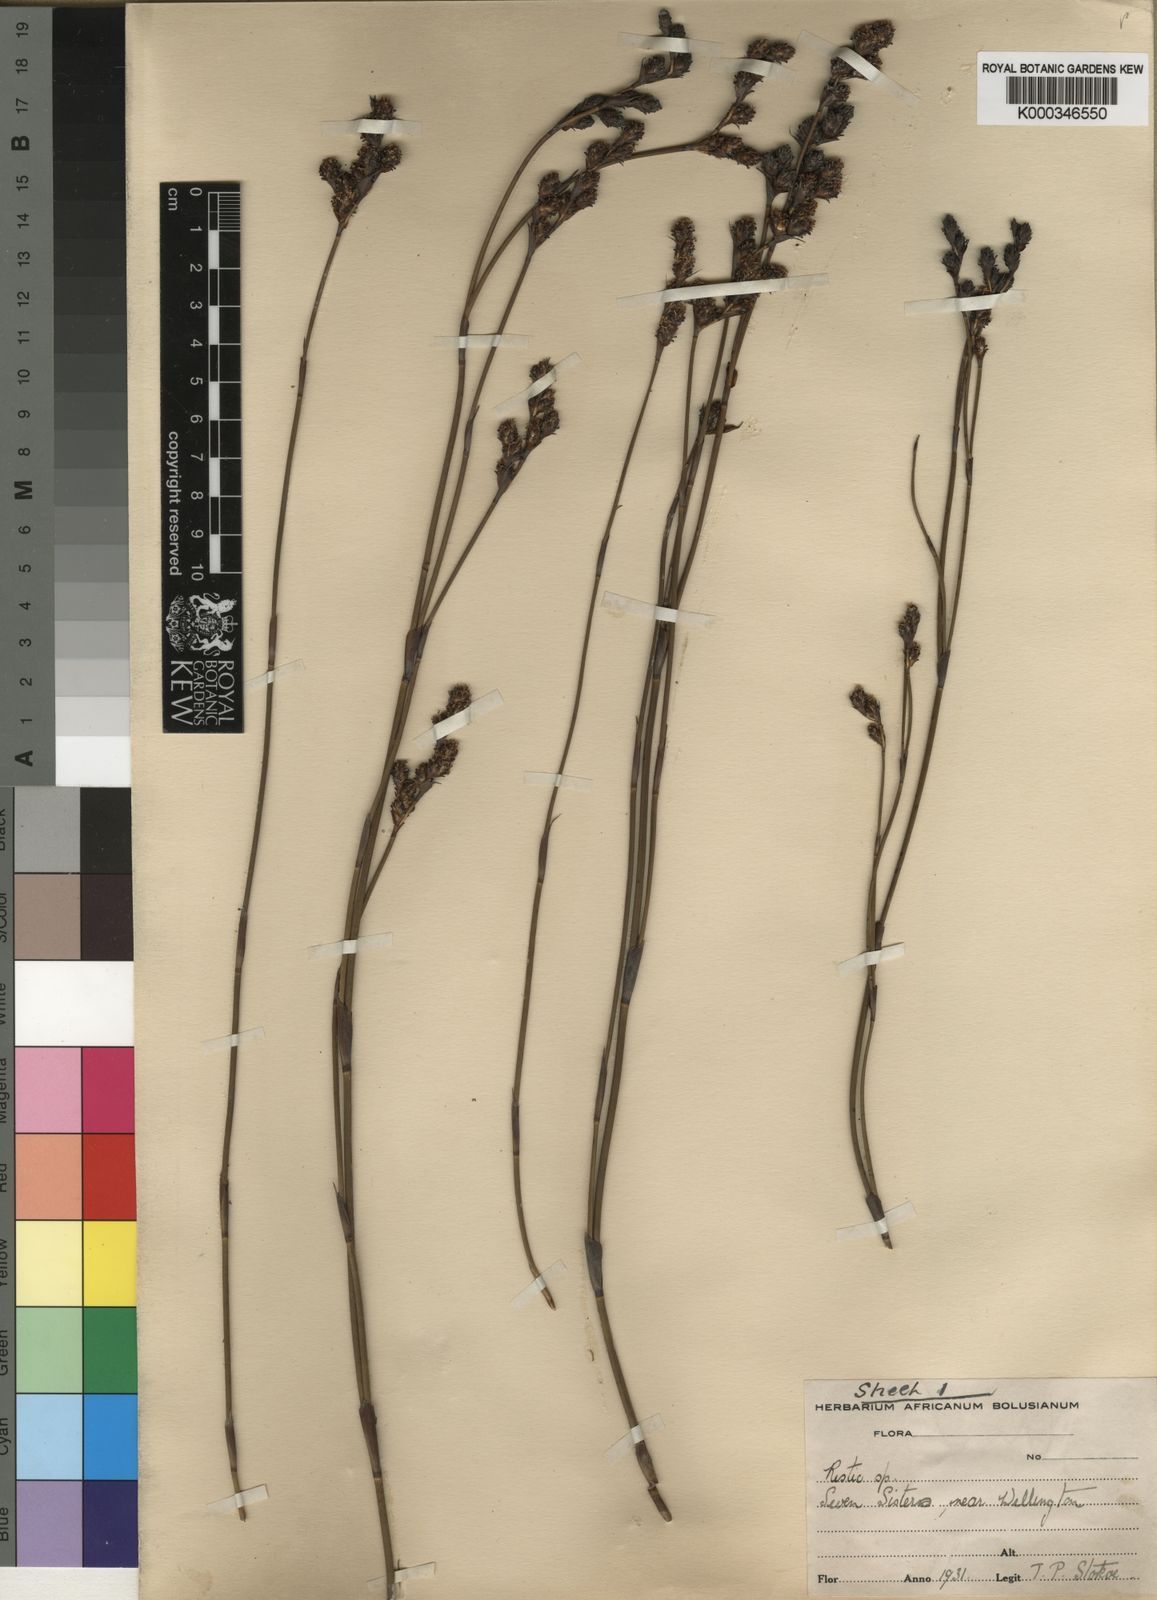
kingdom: Plantae
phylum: Tracheophyta
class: Liliopsida
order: Poales
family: Restionaceae
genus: Restio
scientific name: Restio obscurus
